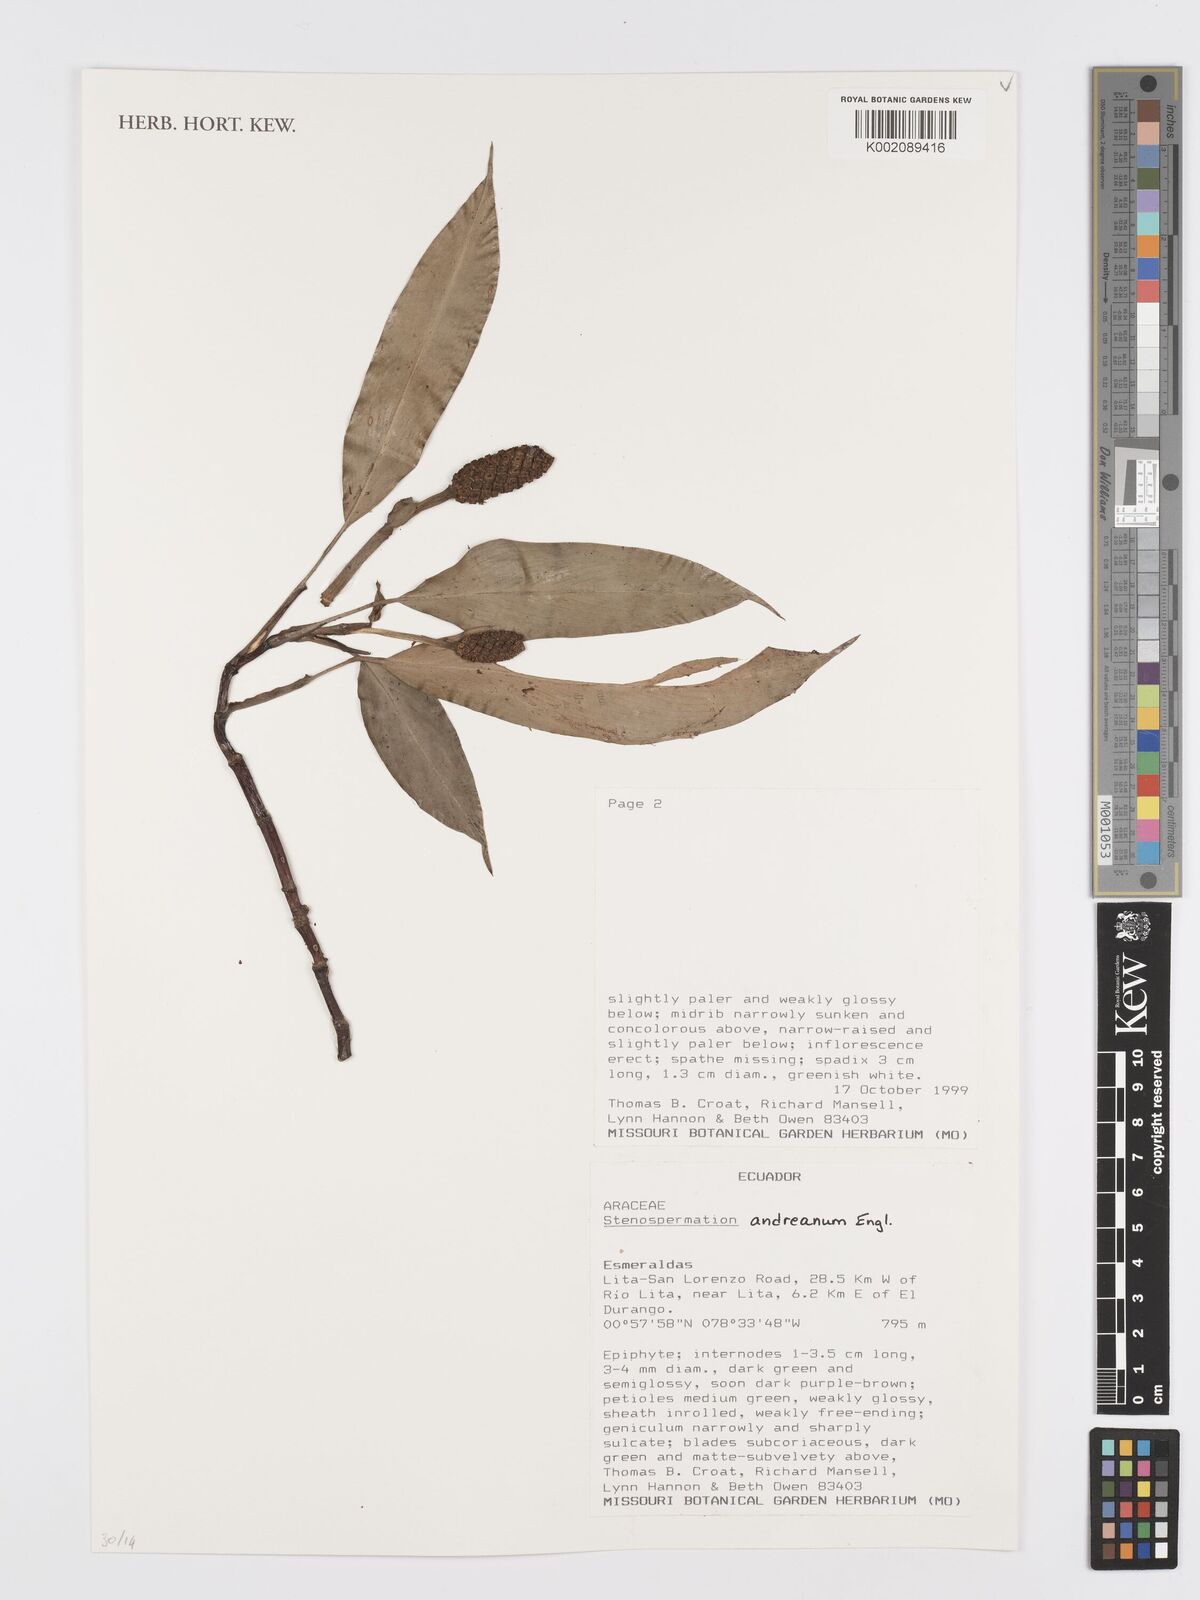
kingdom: Plantae
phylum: Tracheophyta
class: Liliopsida
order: Alismatales
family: Araceae
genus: Stenospermation
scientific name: Stenospermation andreanum
